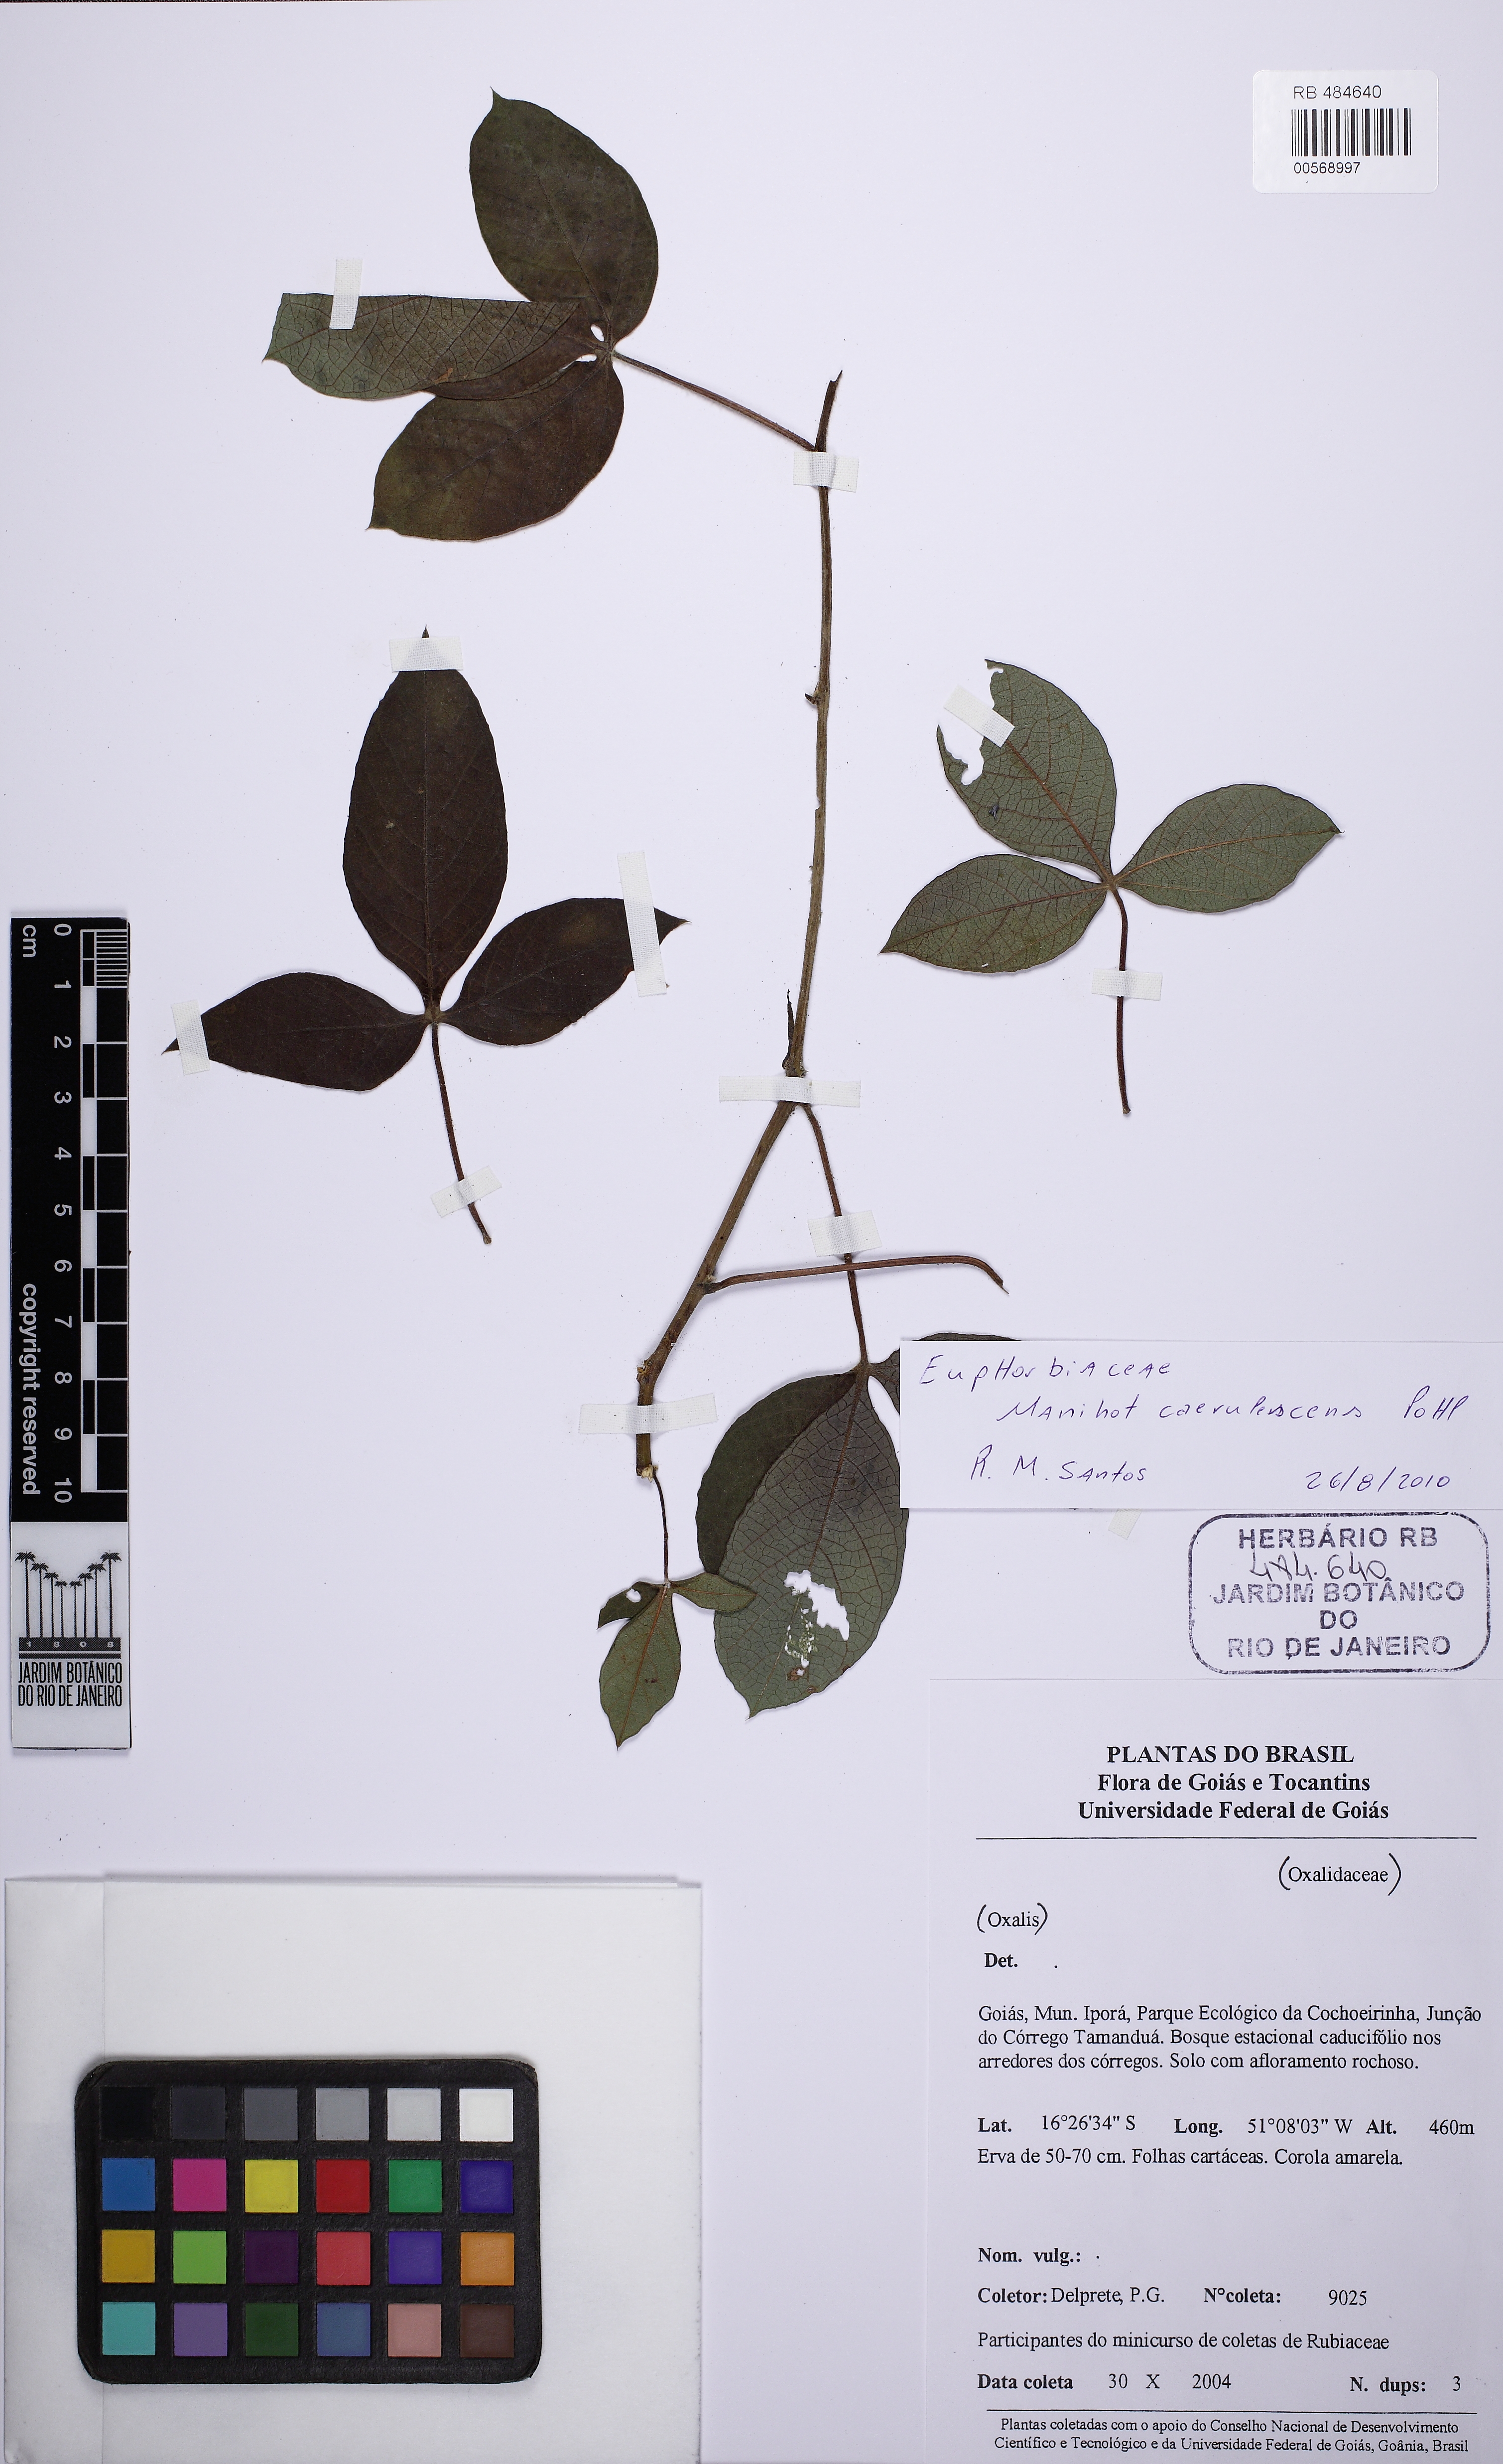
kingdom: Plantae
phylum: Tracheophyta
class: Magnoliopsida
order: Malpighiales
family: Euphorbiaceae
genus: Manihot
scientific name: Manihot tripartita
